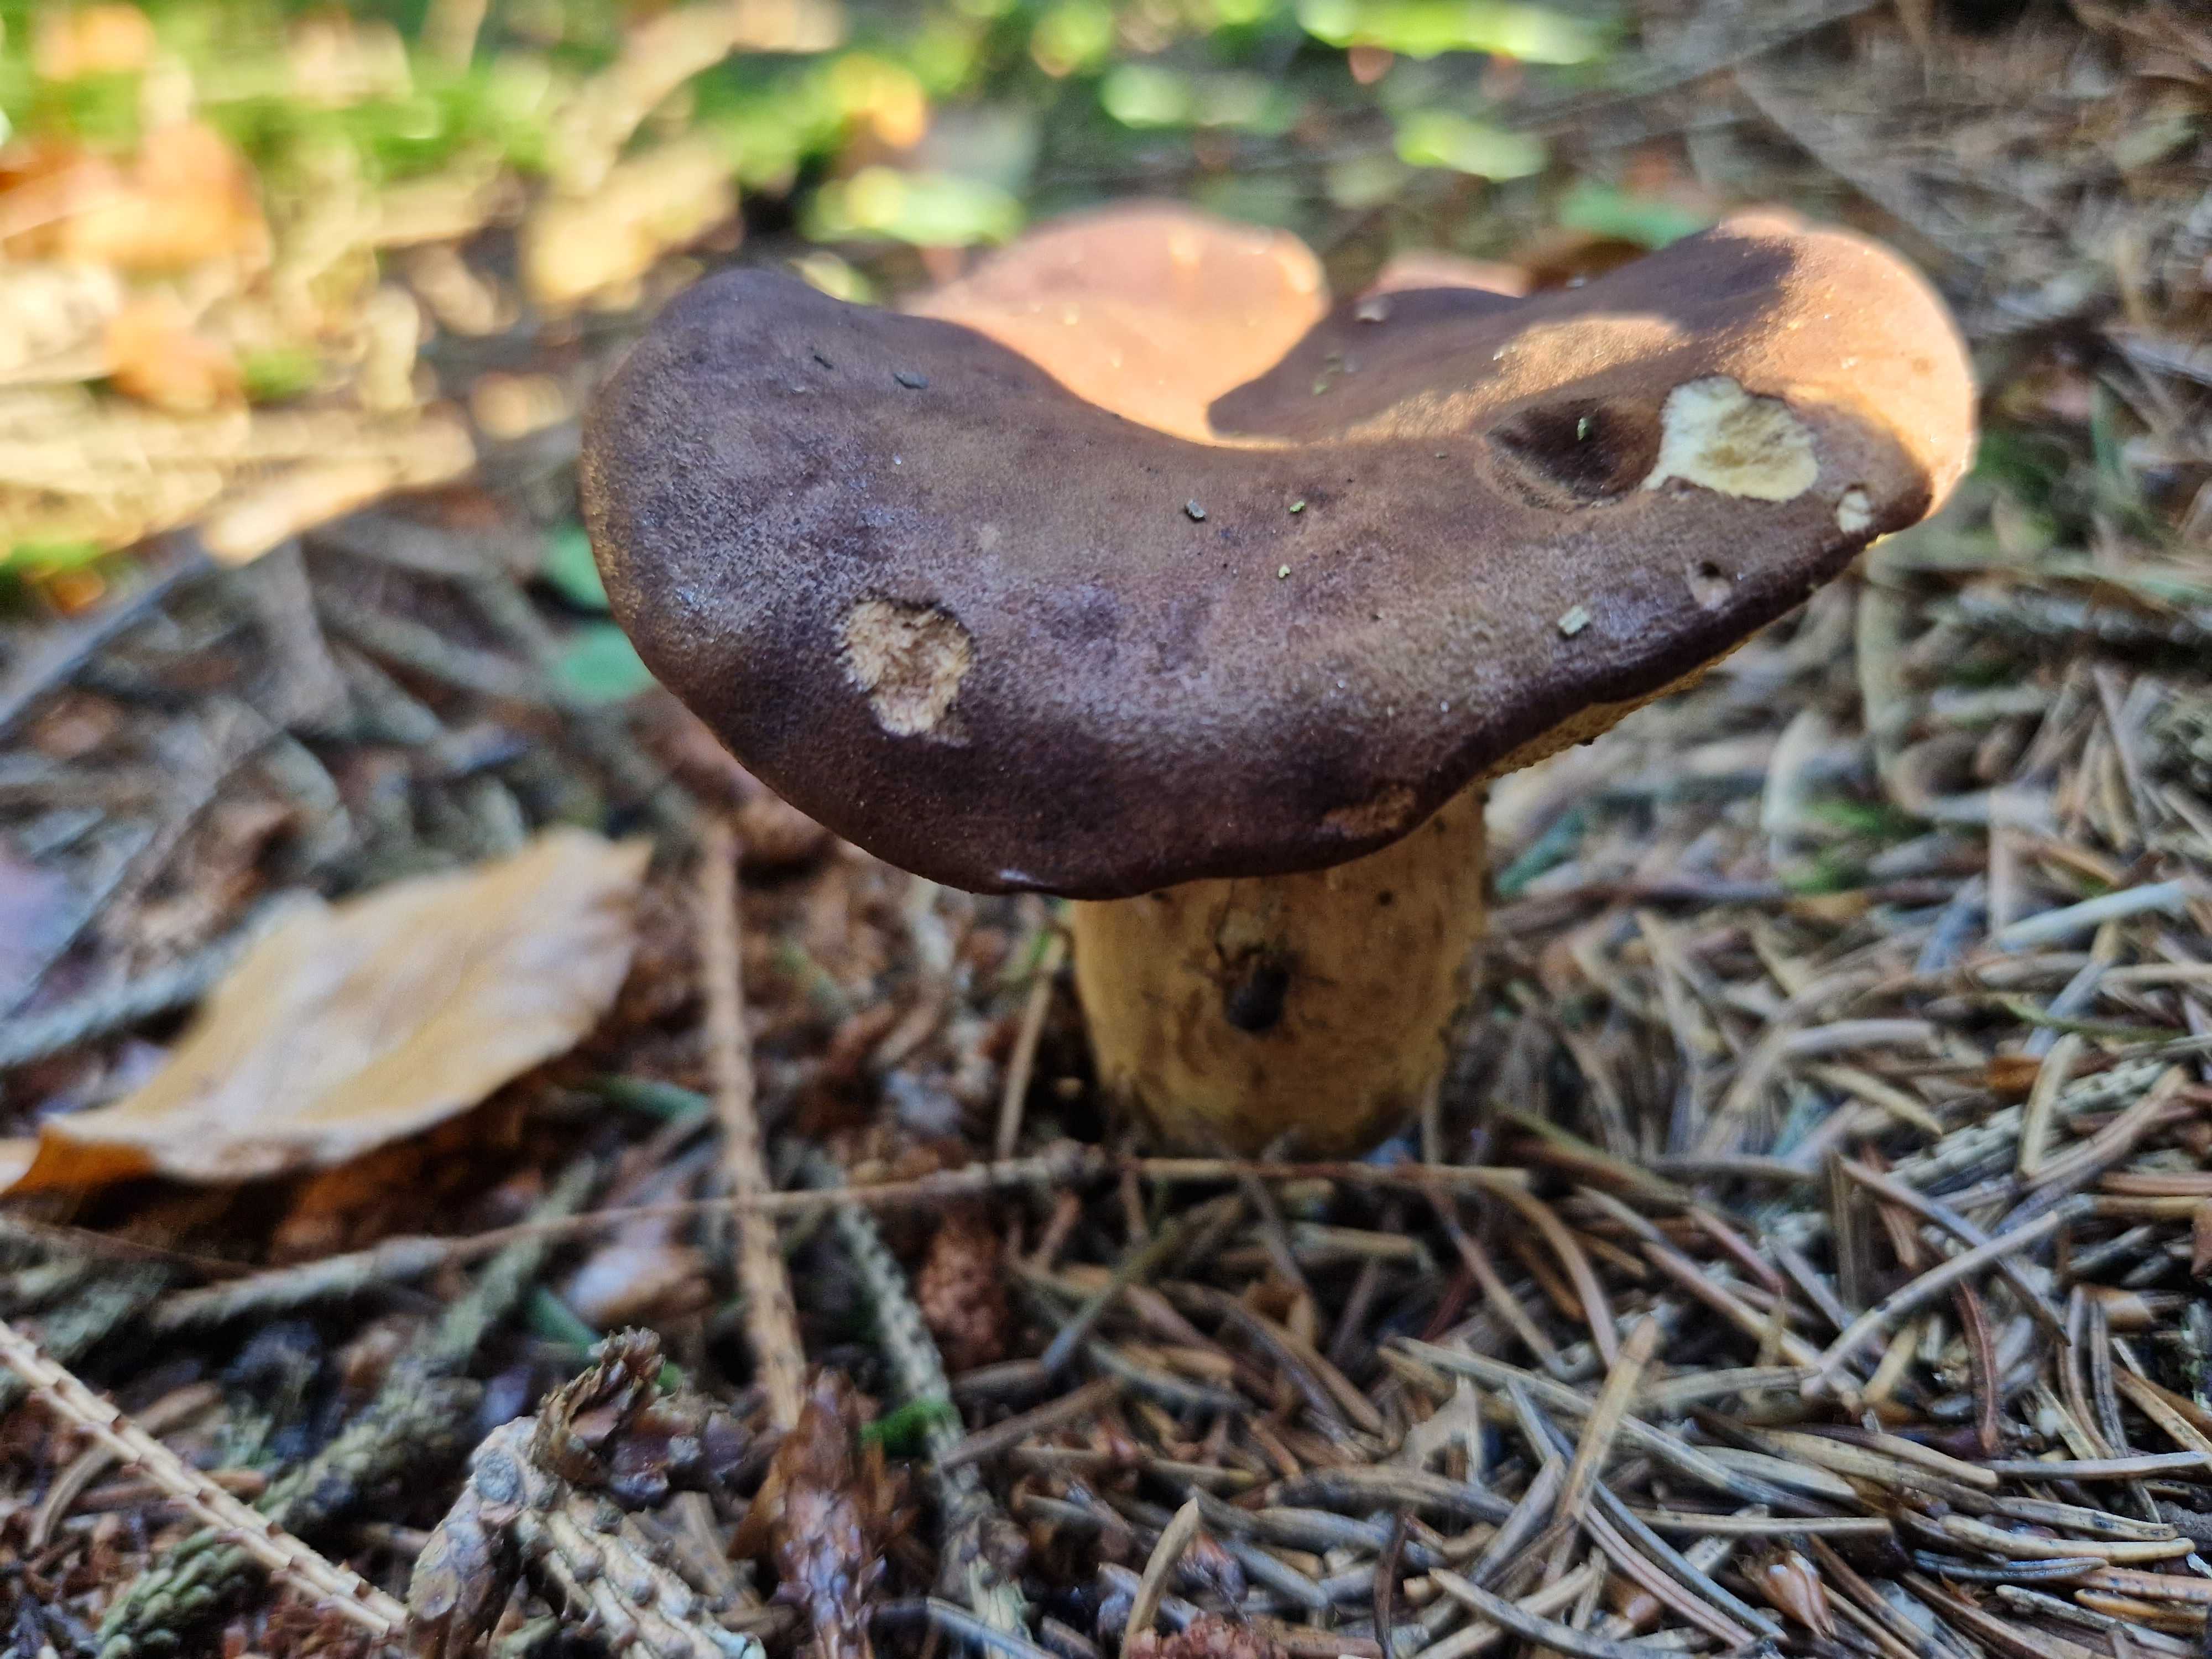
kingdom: Fungi
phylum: Basidiomycota
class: Agaricomycetes
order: Boletales
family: Boletaceae
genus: Imleria
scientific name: Imleria badia
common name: brunstokket rørhat
